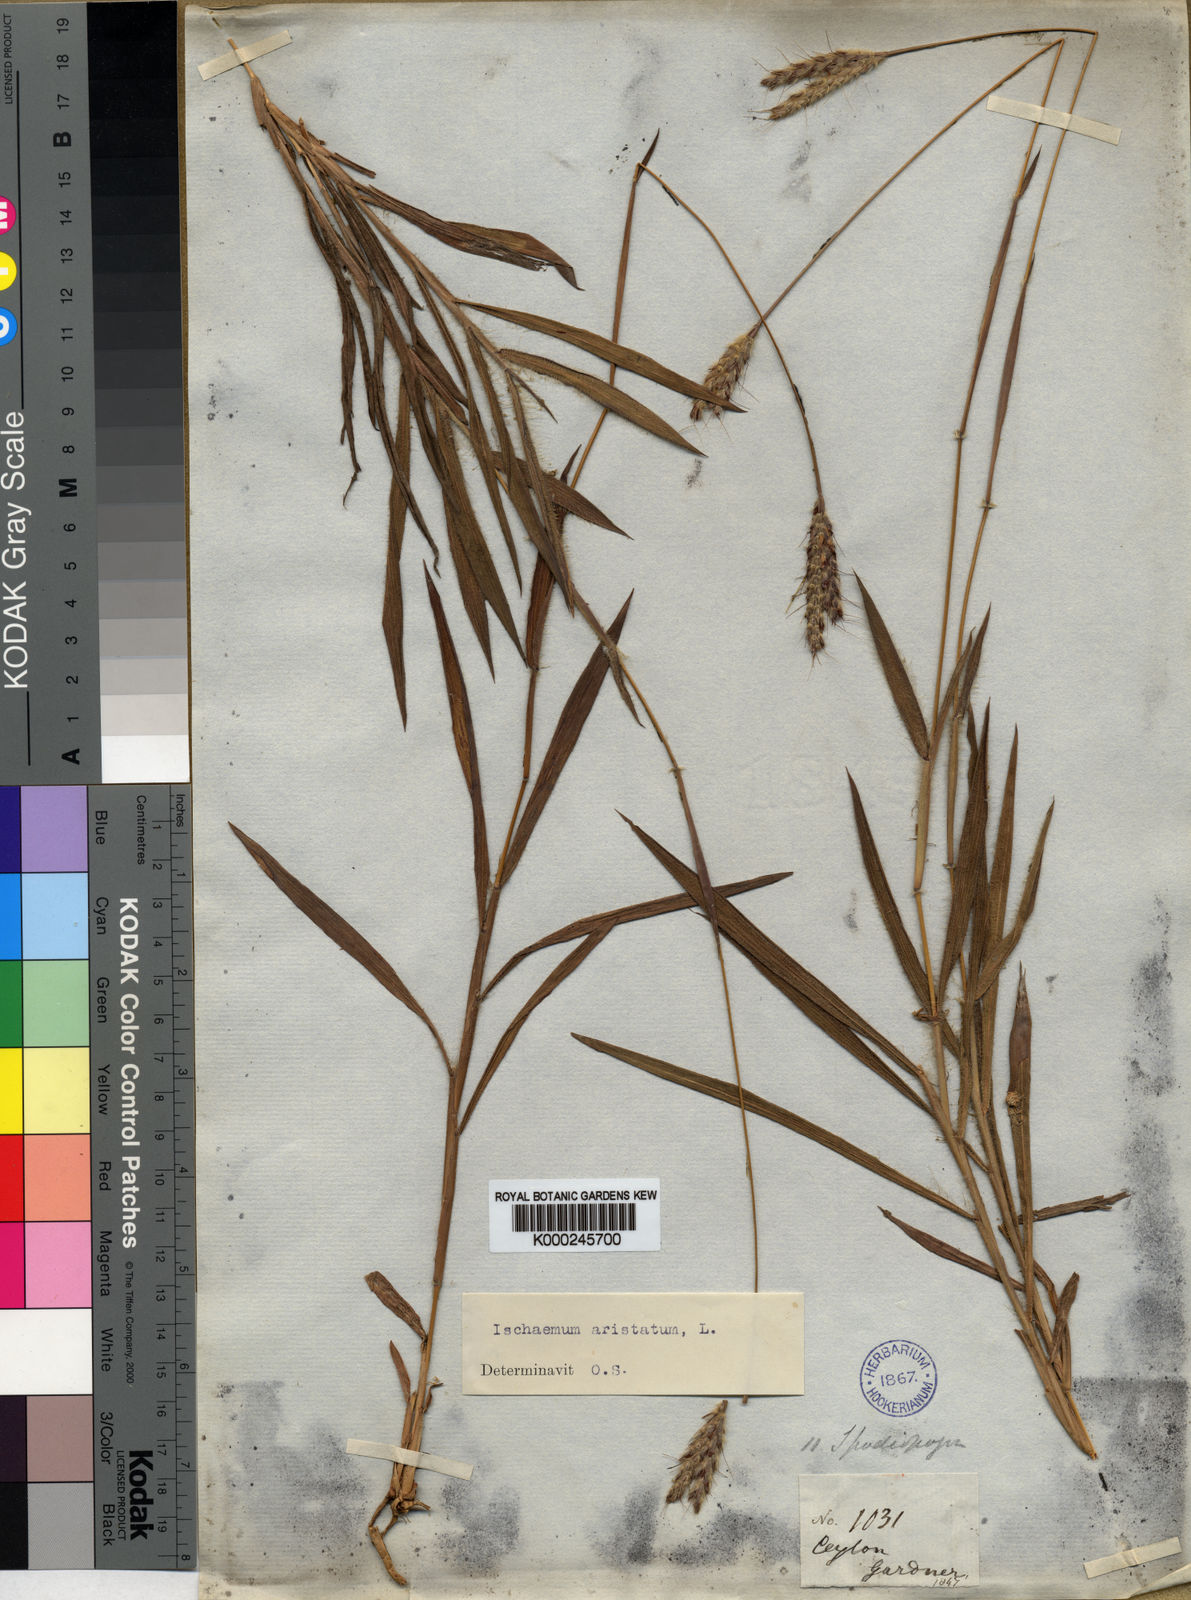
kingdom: Plantae
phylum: Tracheophyta
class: Liliopsida
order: Poales
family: Poaceae
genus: Polytrias
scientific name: Polytrias indica
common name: Indian murainagrass
